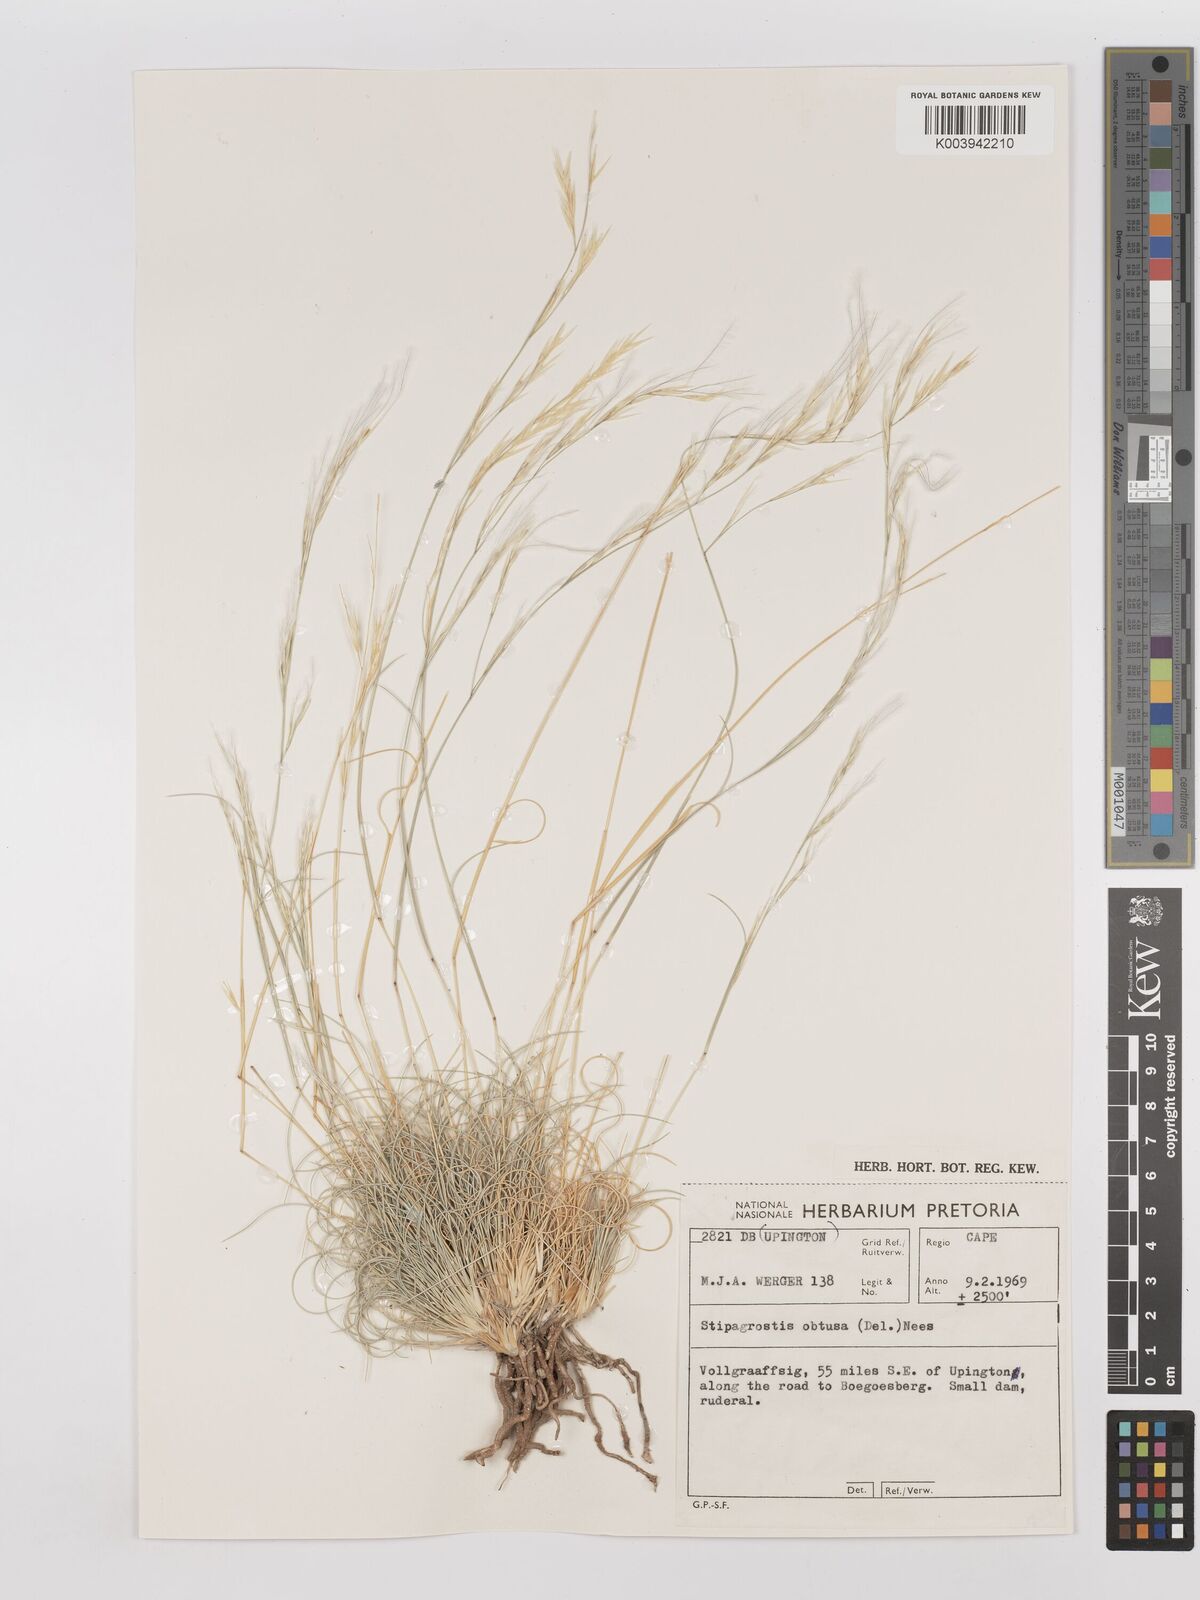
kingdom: Plantae
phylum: Tracheophyta
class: Liliopsida
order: Poales
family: Poaceae
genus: Stipagrostis
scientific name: Stipagrostis obtusa
